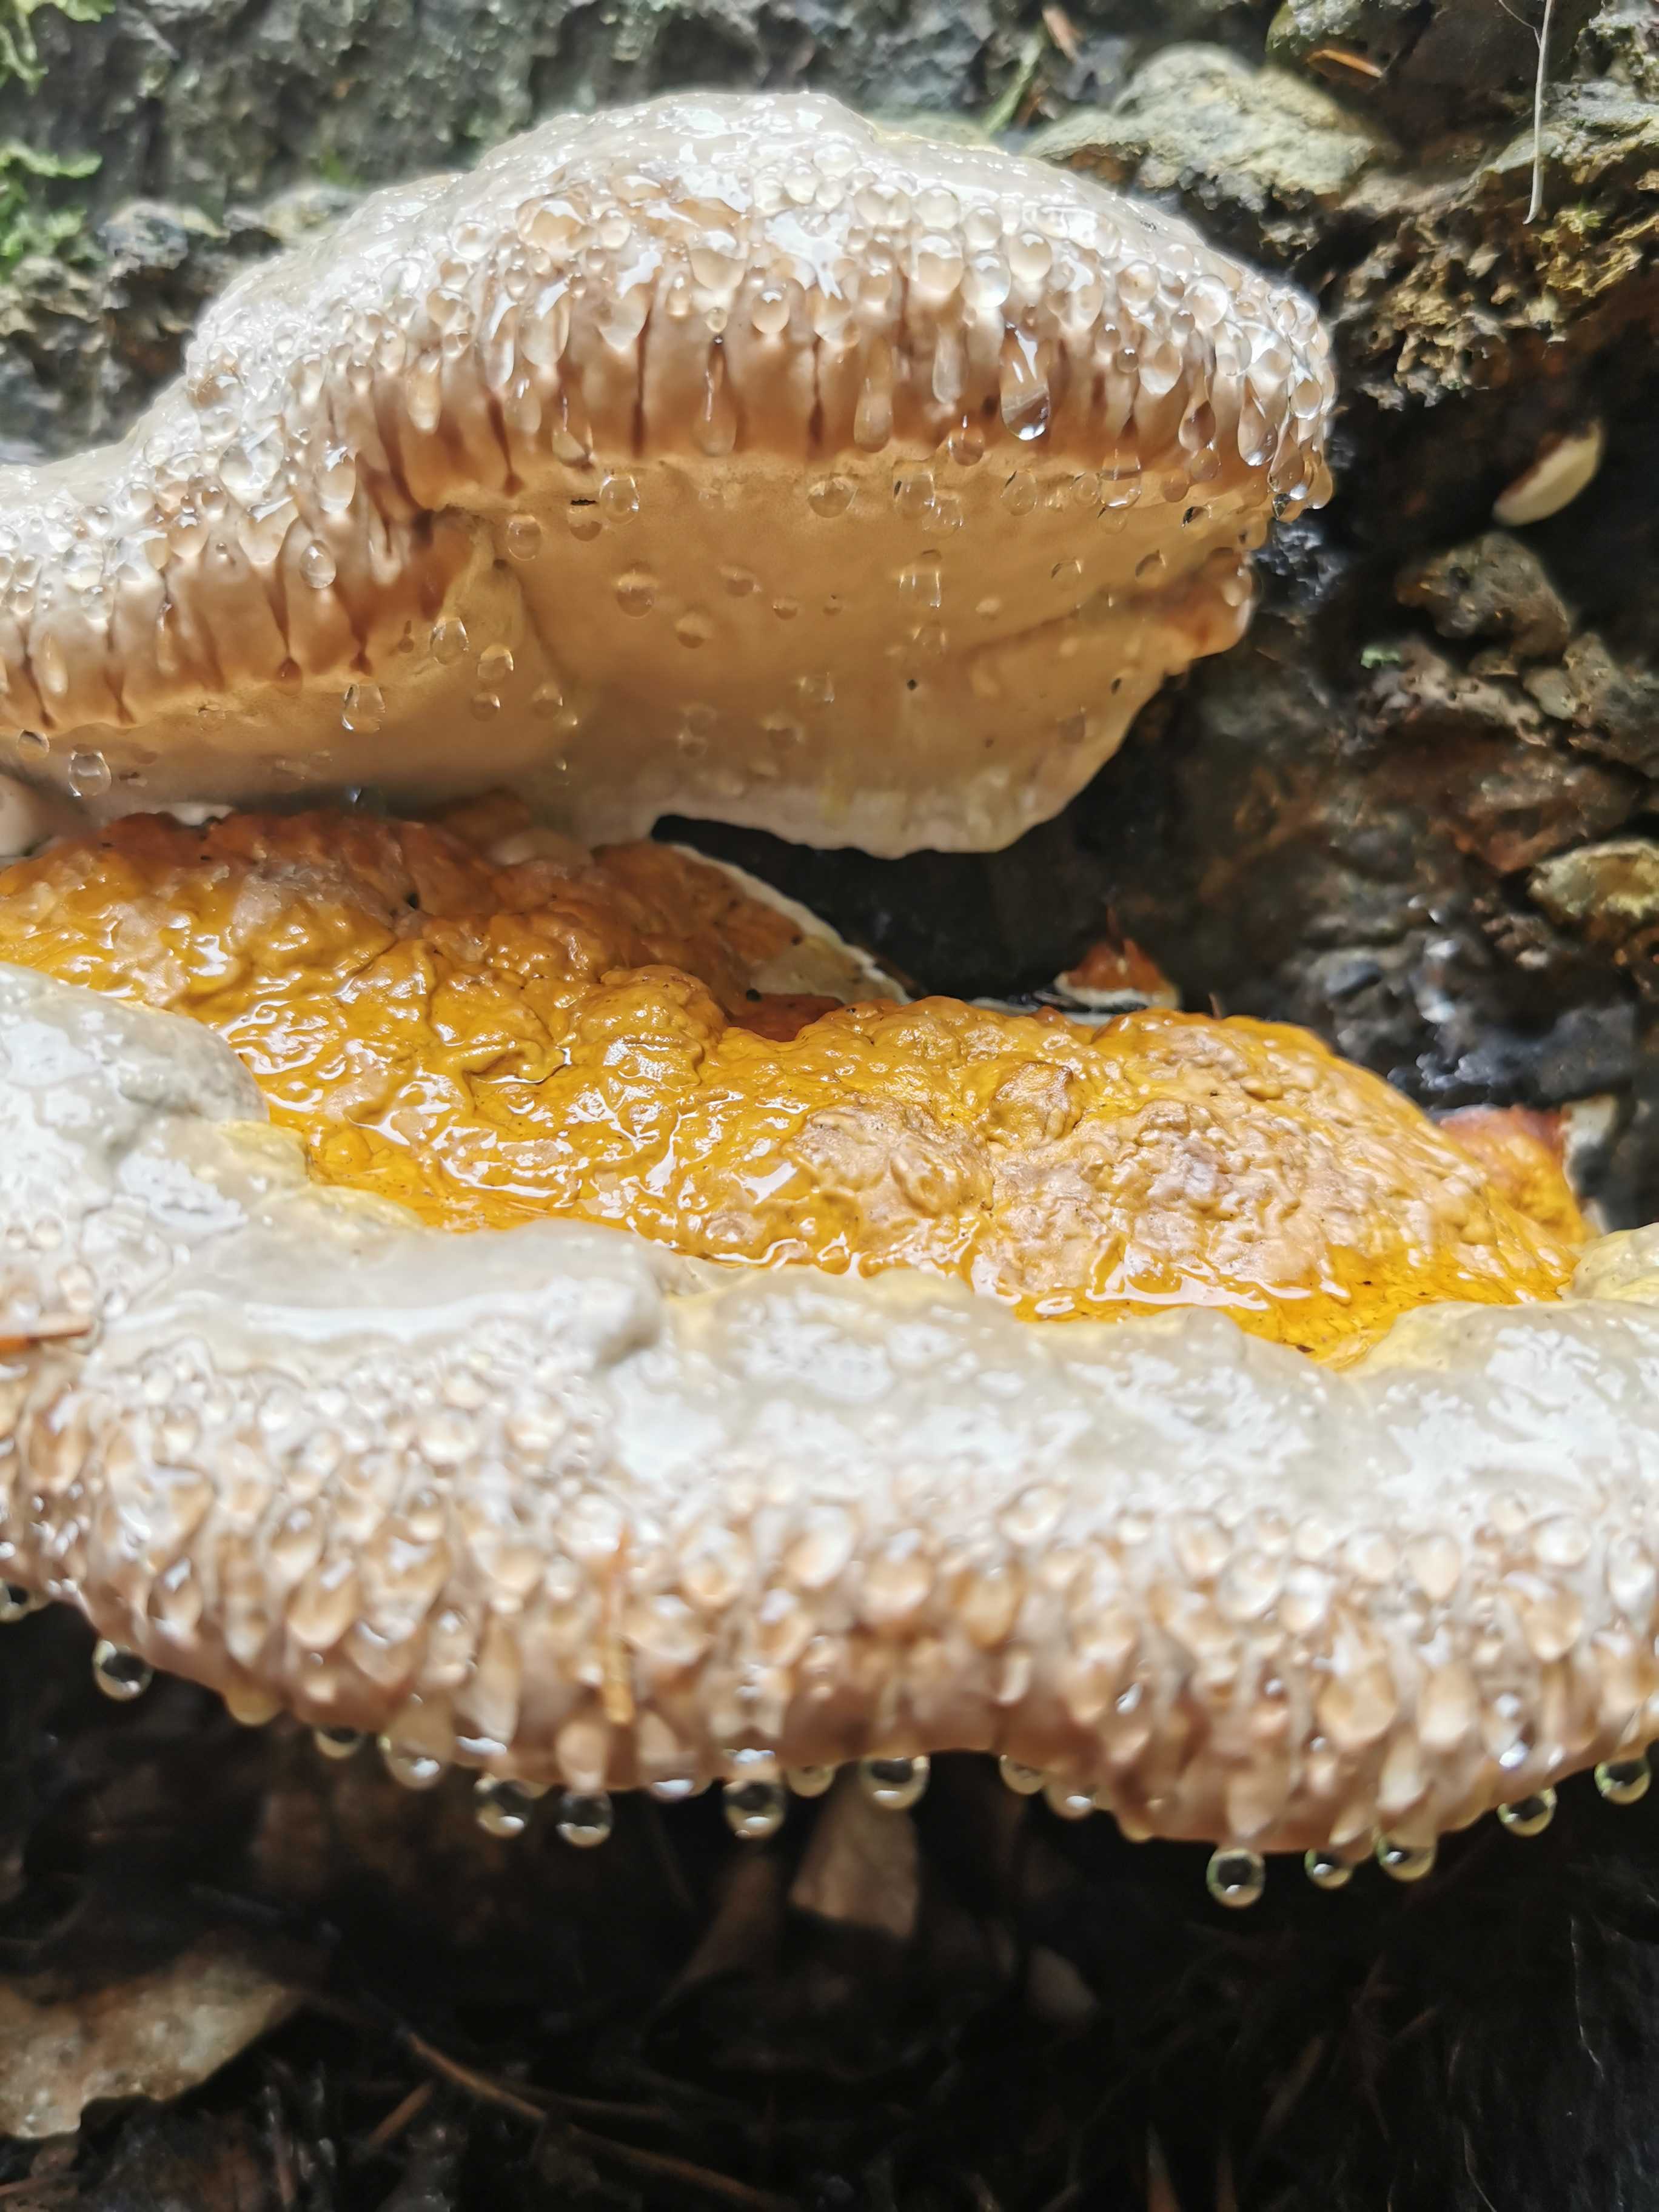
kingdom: Fungi
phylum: Basidiomycota
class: Agaricomycetes
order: Polyporales
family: Fomitopsidaceae
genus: Fomitopsis
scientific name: Fomitopsis pinicola
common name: randbæltet hovporesvamp
